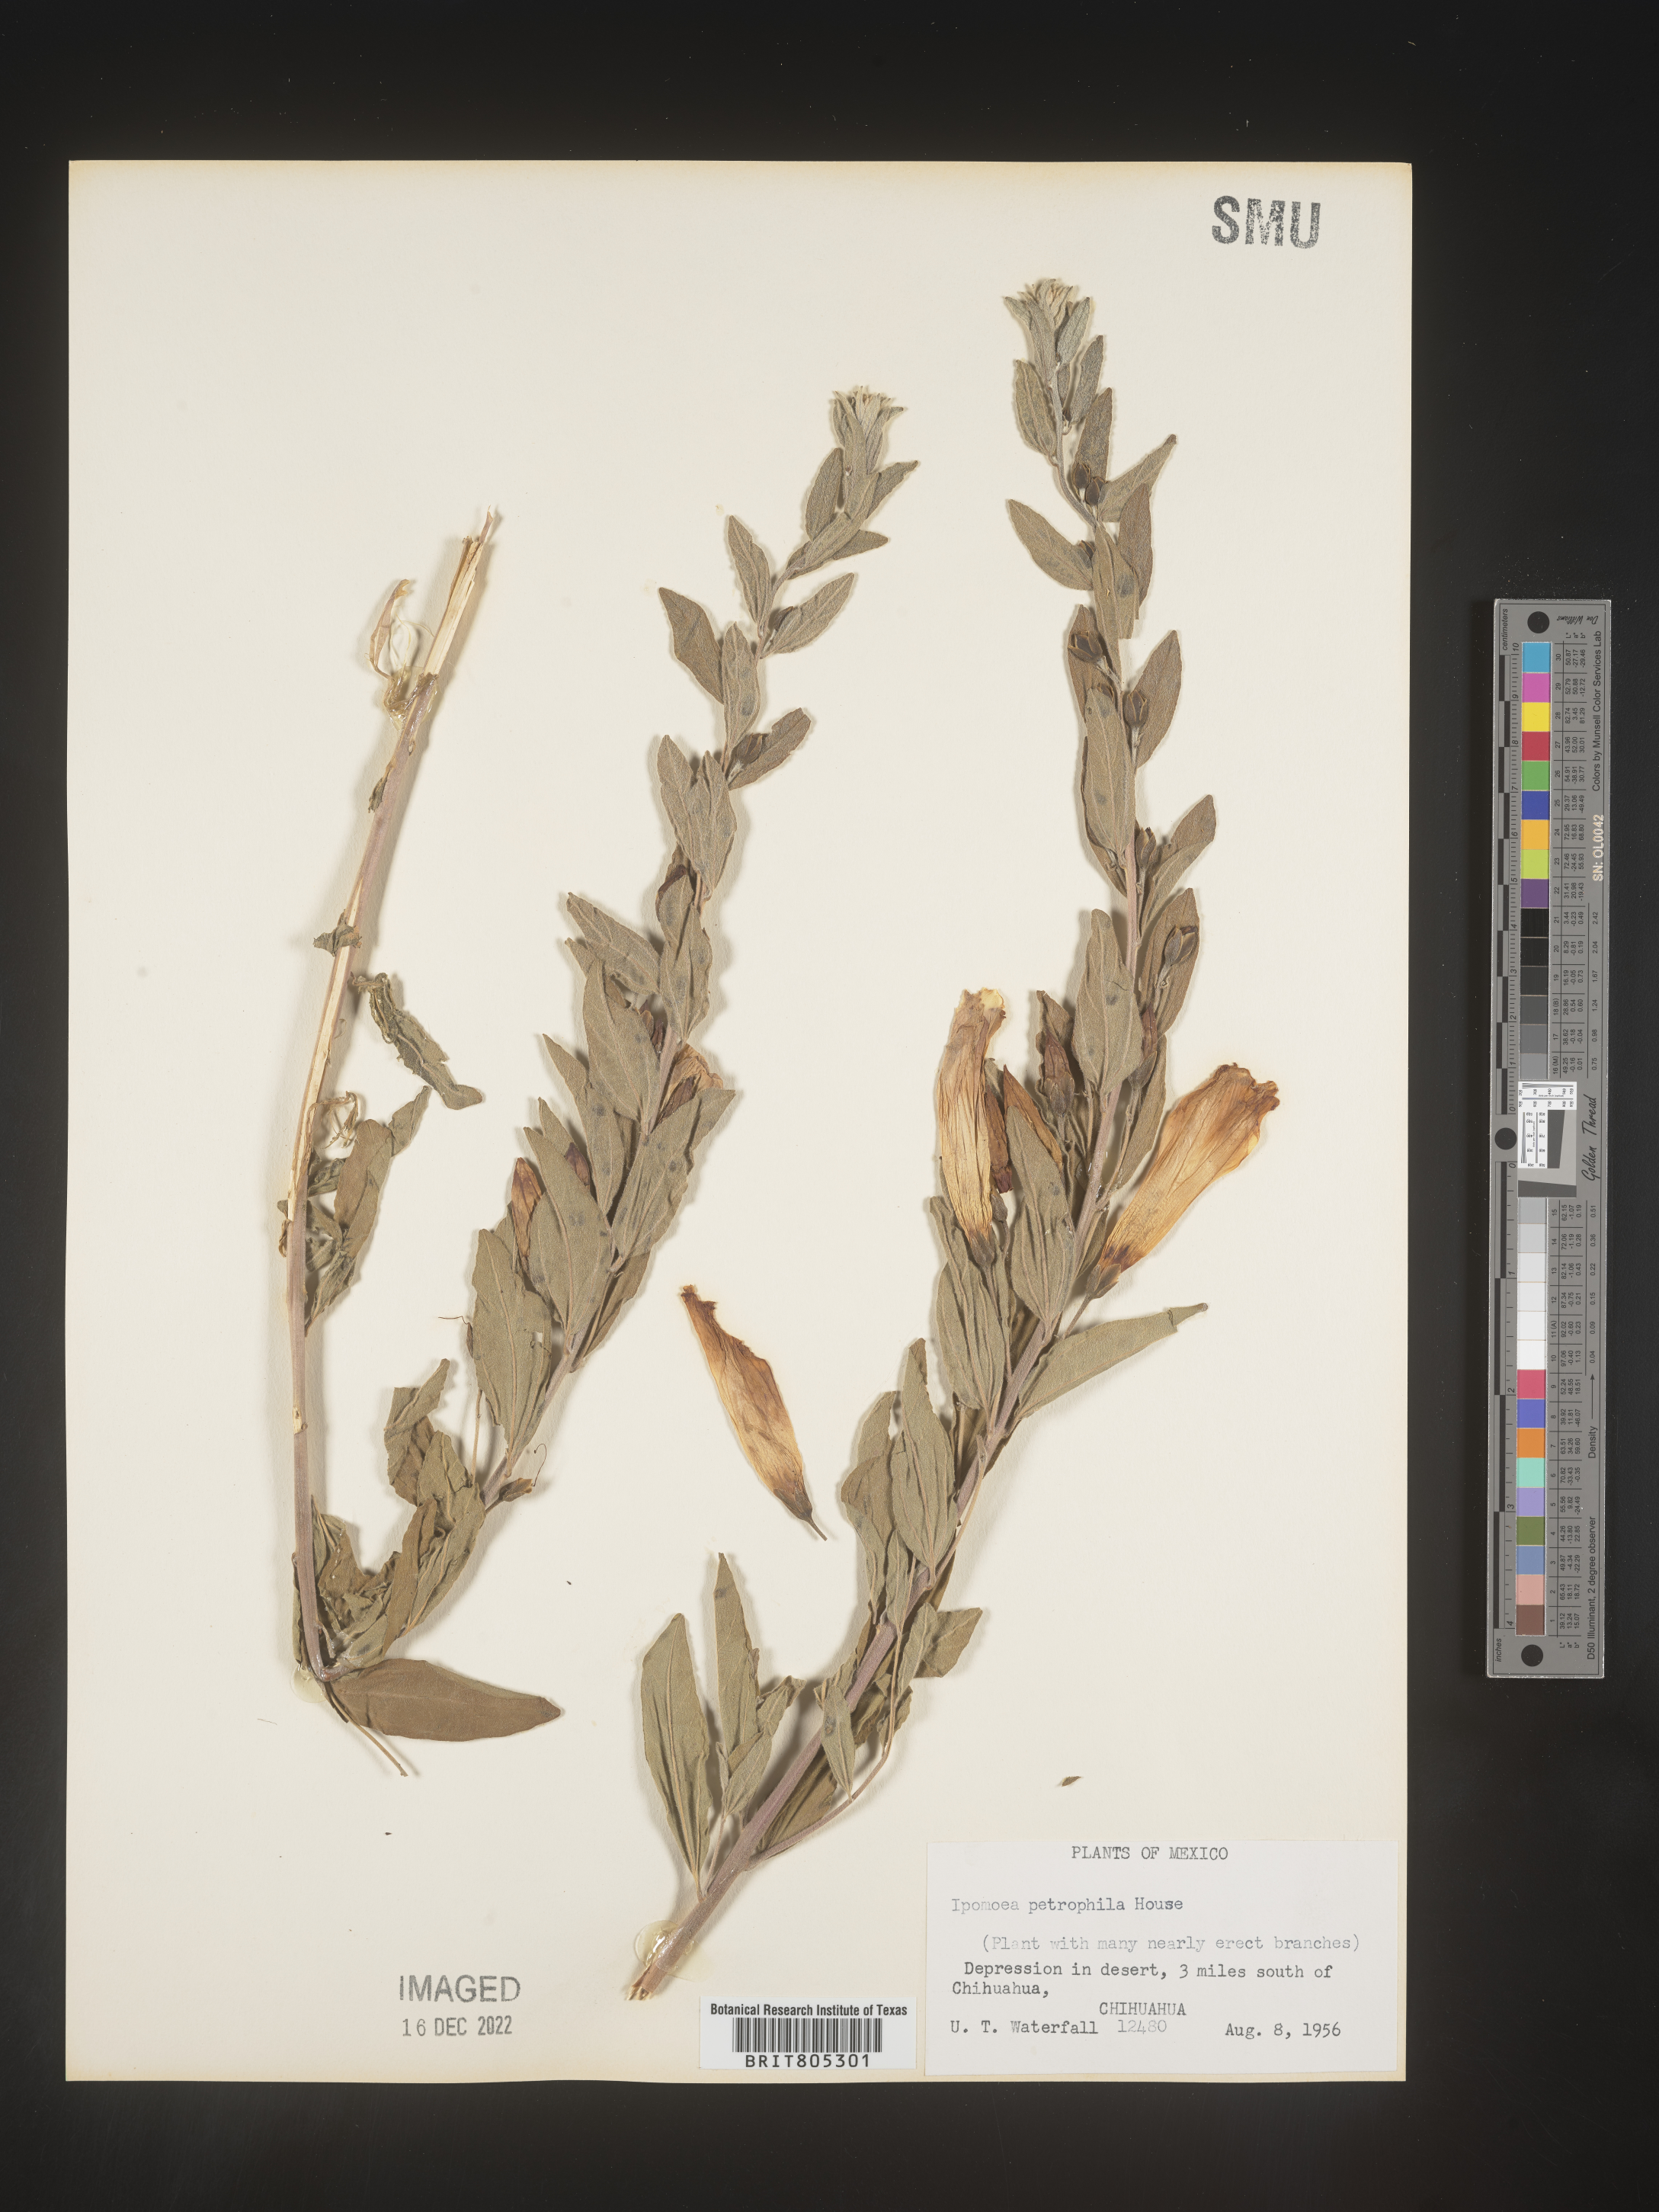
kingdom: Plantae
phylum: Tracheophyta
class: Magnoliopsida
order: Solanales
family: Convolvulaceae
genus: Ipomoea
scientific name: Ipomoea
